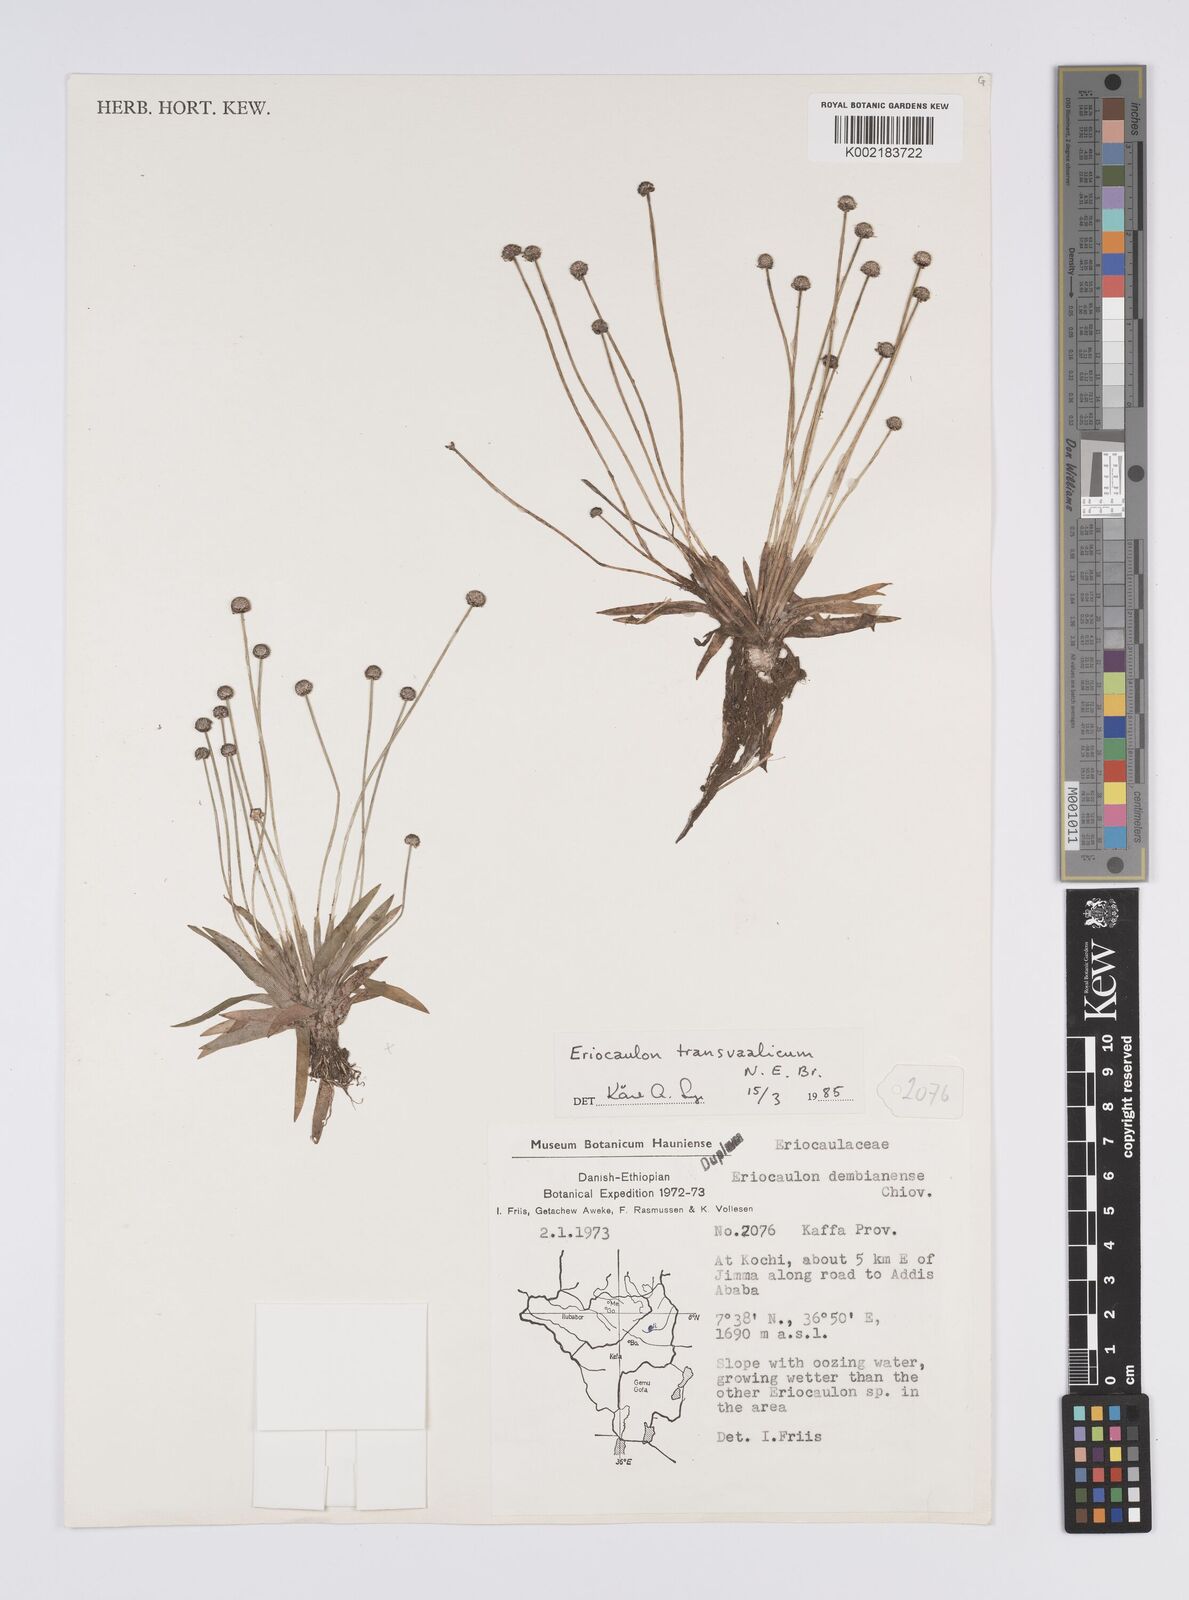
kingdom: Plantae
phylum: Tracheophyta
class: Liliopsida
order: Poales
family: Eriocaulaceae
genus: Eriocaulon
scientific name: Eriocaulon transvaalicum
